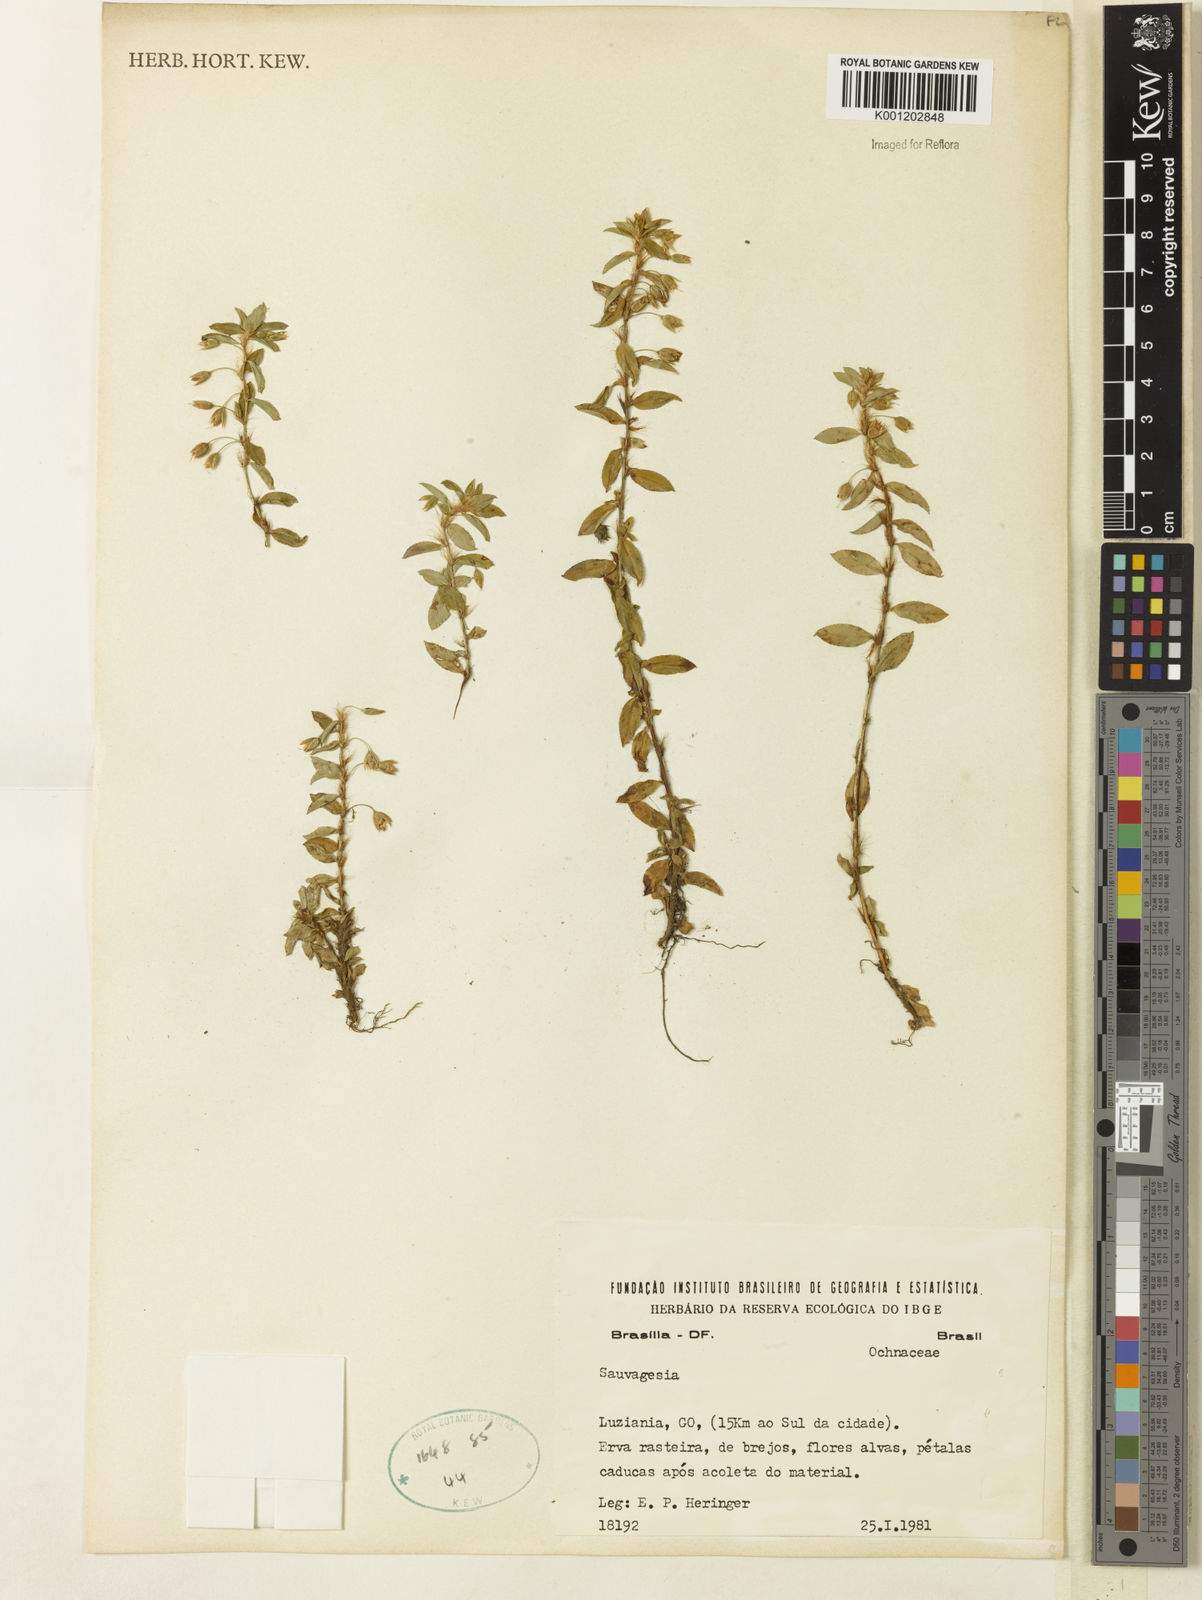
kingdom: Plantae
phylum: Tracheophyta
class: Magnoliopsida
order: Malpighiales
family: Ochnaceae
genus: Sauvagesia
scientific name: Sauvagesia erecta
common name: Creole tea
